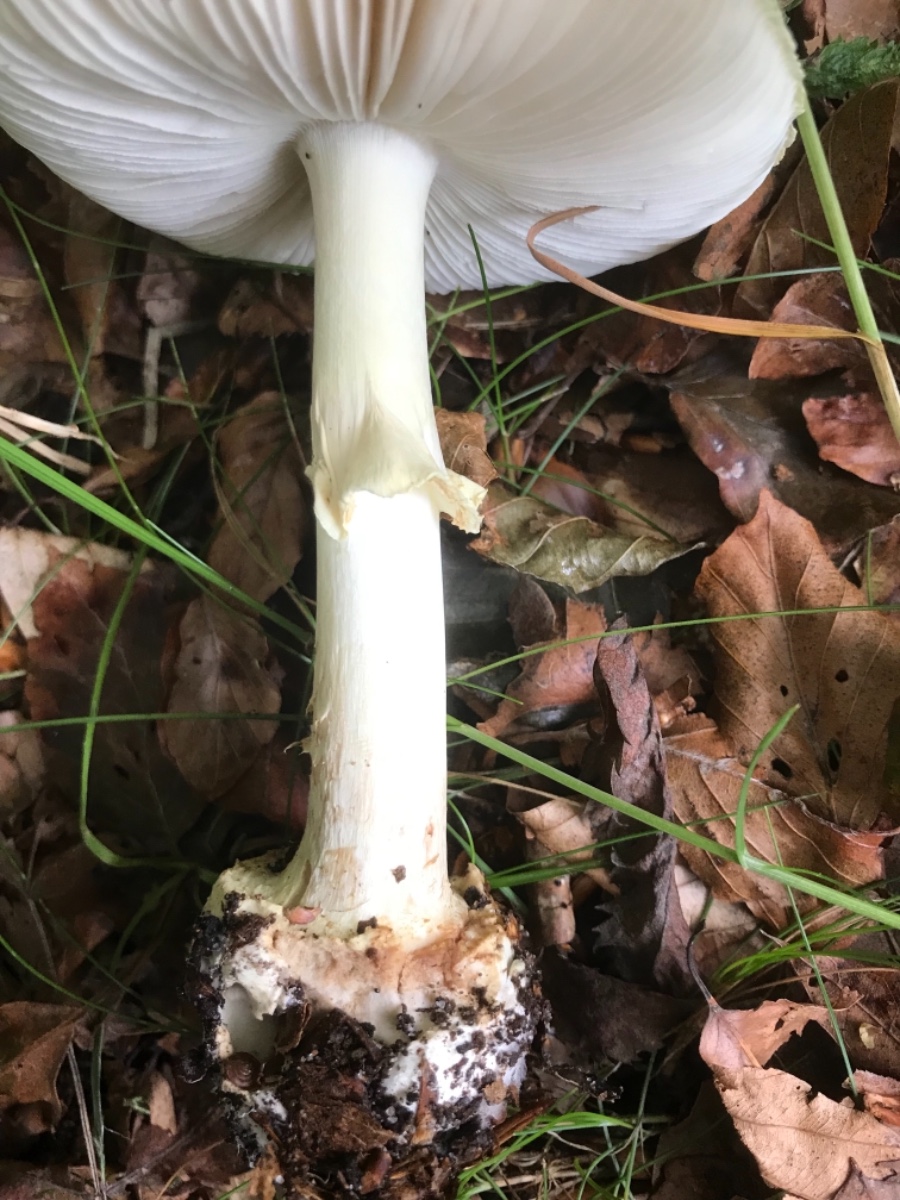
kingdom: Fungi
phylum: Basidiomycota
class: Agaricomycetes
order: Agaricales
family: Amanitaceae
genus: Amanita
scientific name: Amanita citrina
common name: kugleknoldet fluesvamp
